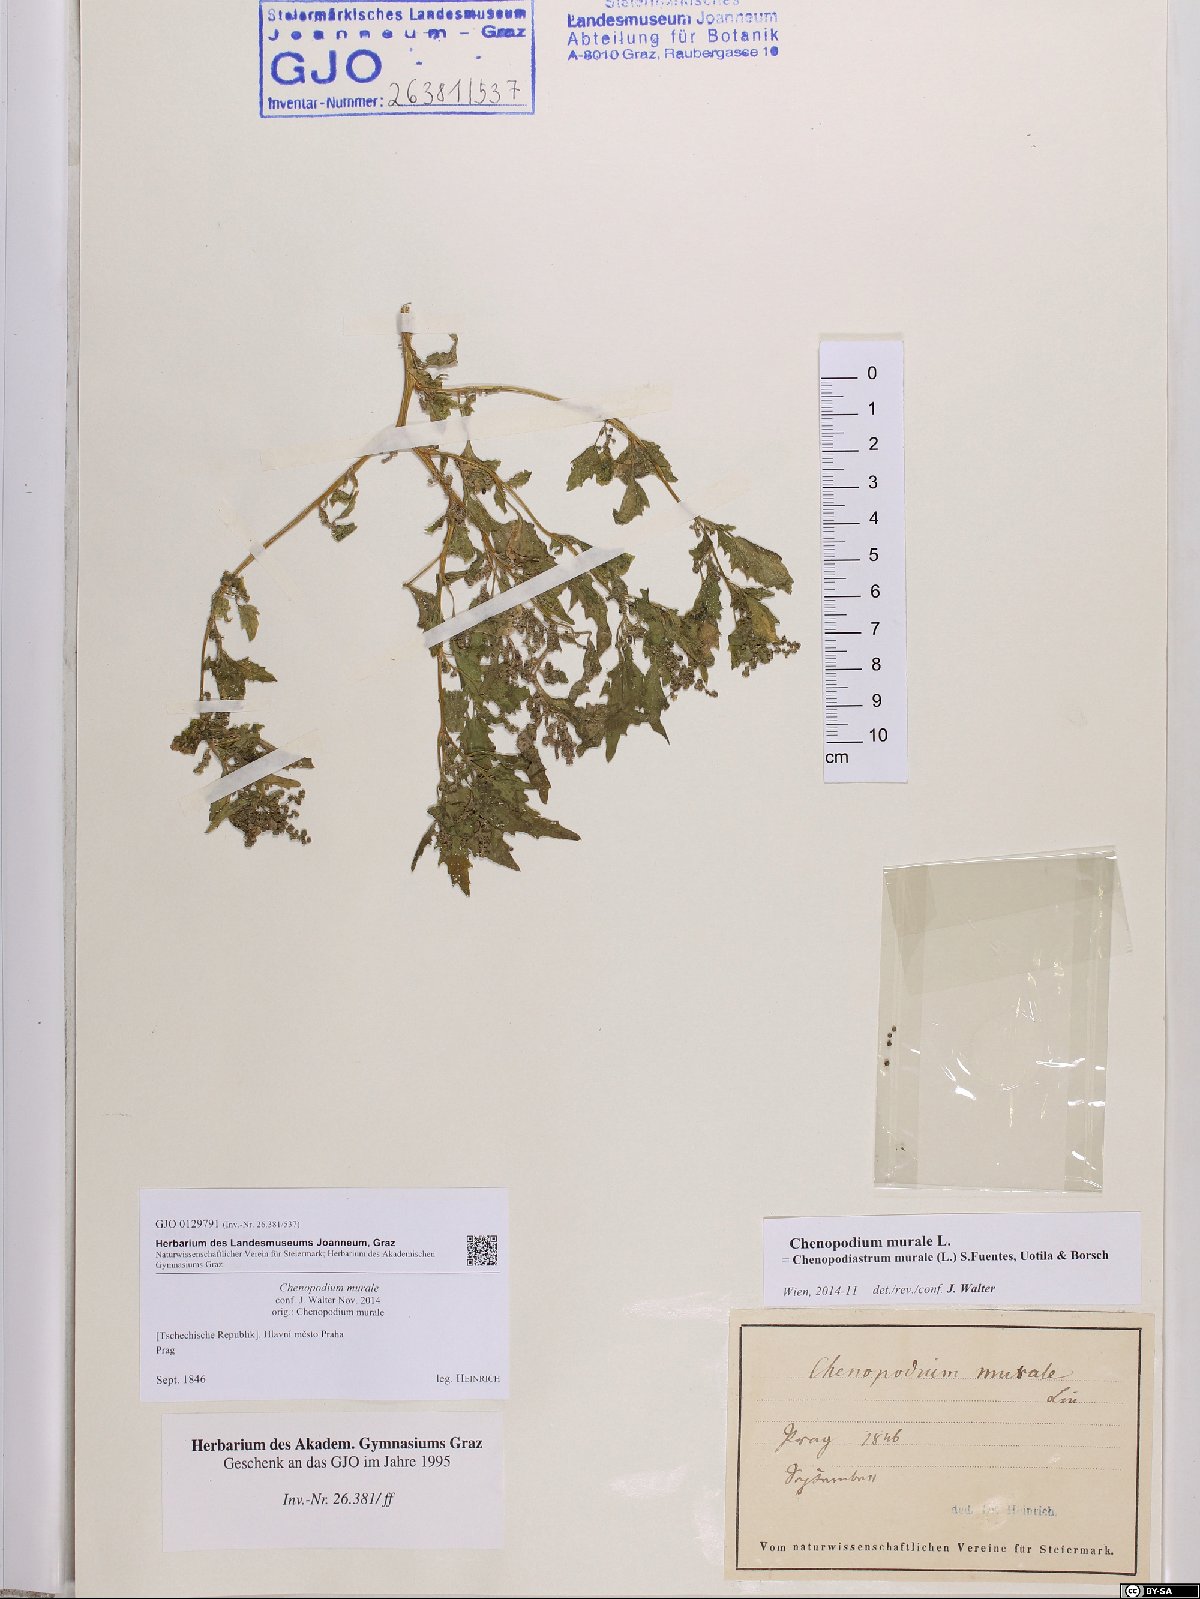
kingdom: Plantae
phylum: Tracheophyta
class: Magnoliopsida
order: Caryophyllales
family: Amaranthaceae
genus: Chenopodiastrum
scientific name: Chenopodiastrum murale
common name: Sowbane
